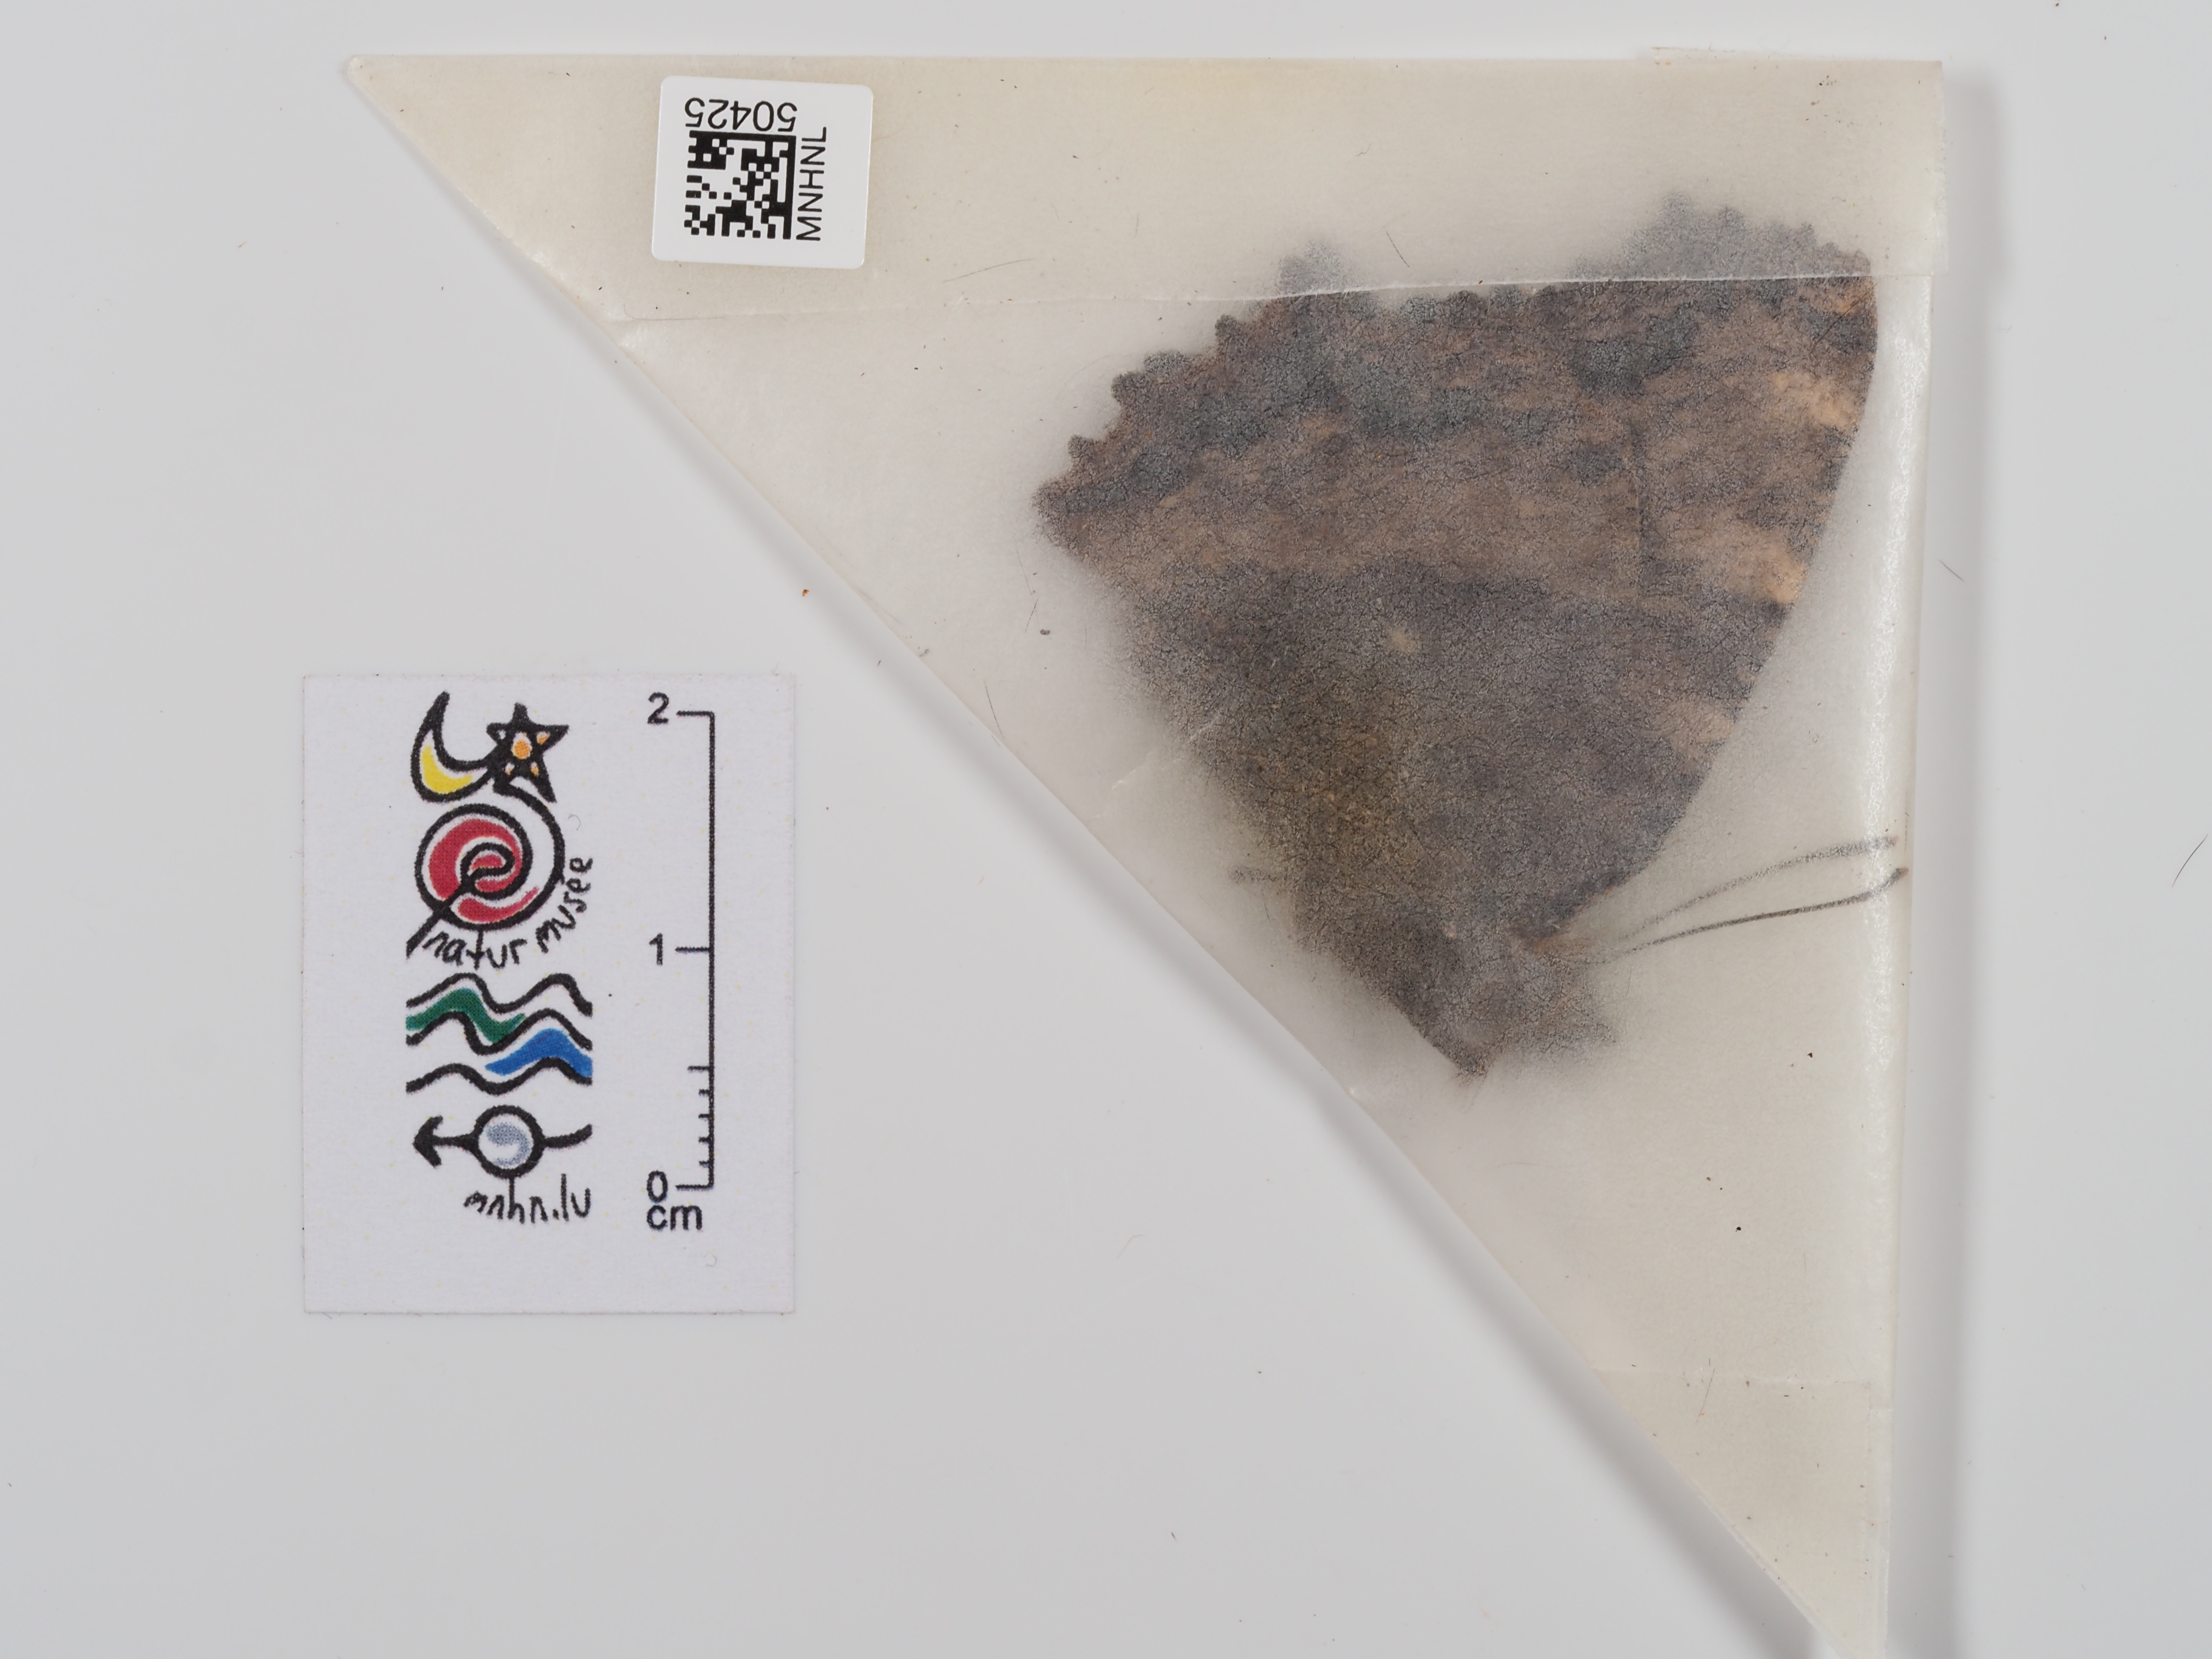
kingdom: Animalia
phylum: Arthropoda
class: Insecta
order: Lepidoptera
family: Nymphalidae
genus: Nymphalis
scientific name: Nymphalis polychloros
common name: Large tortoiseshell
